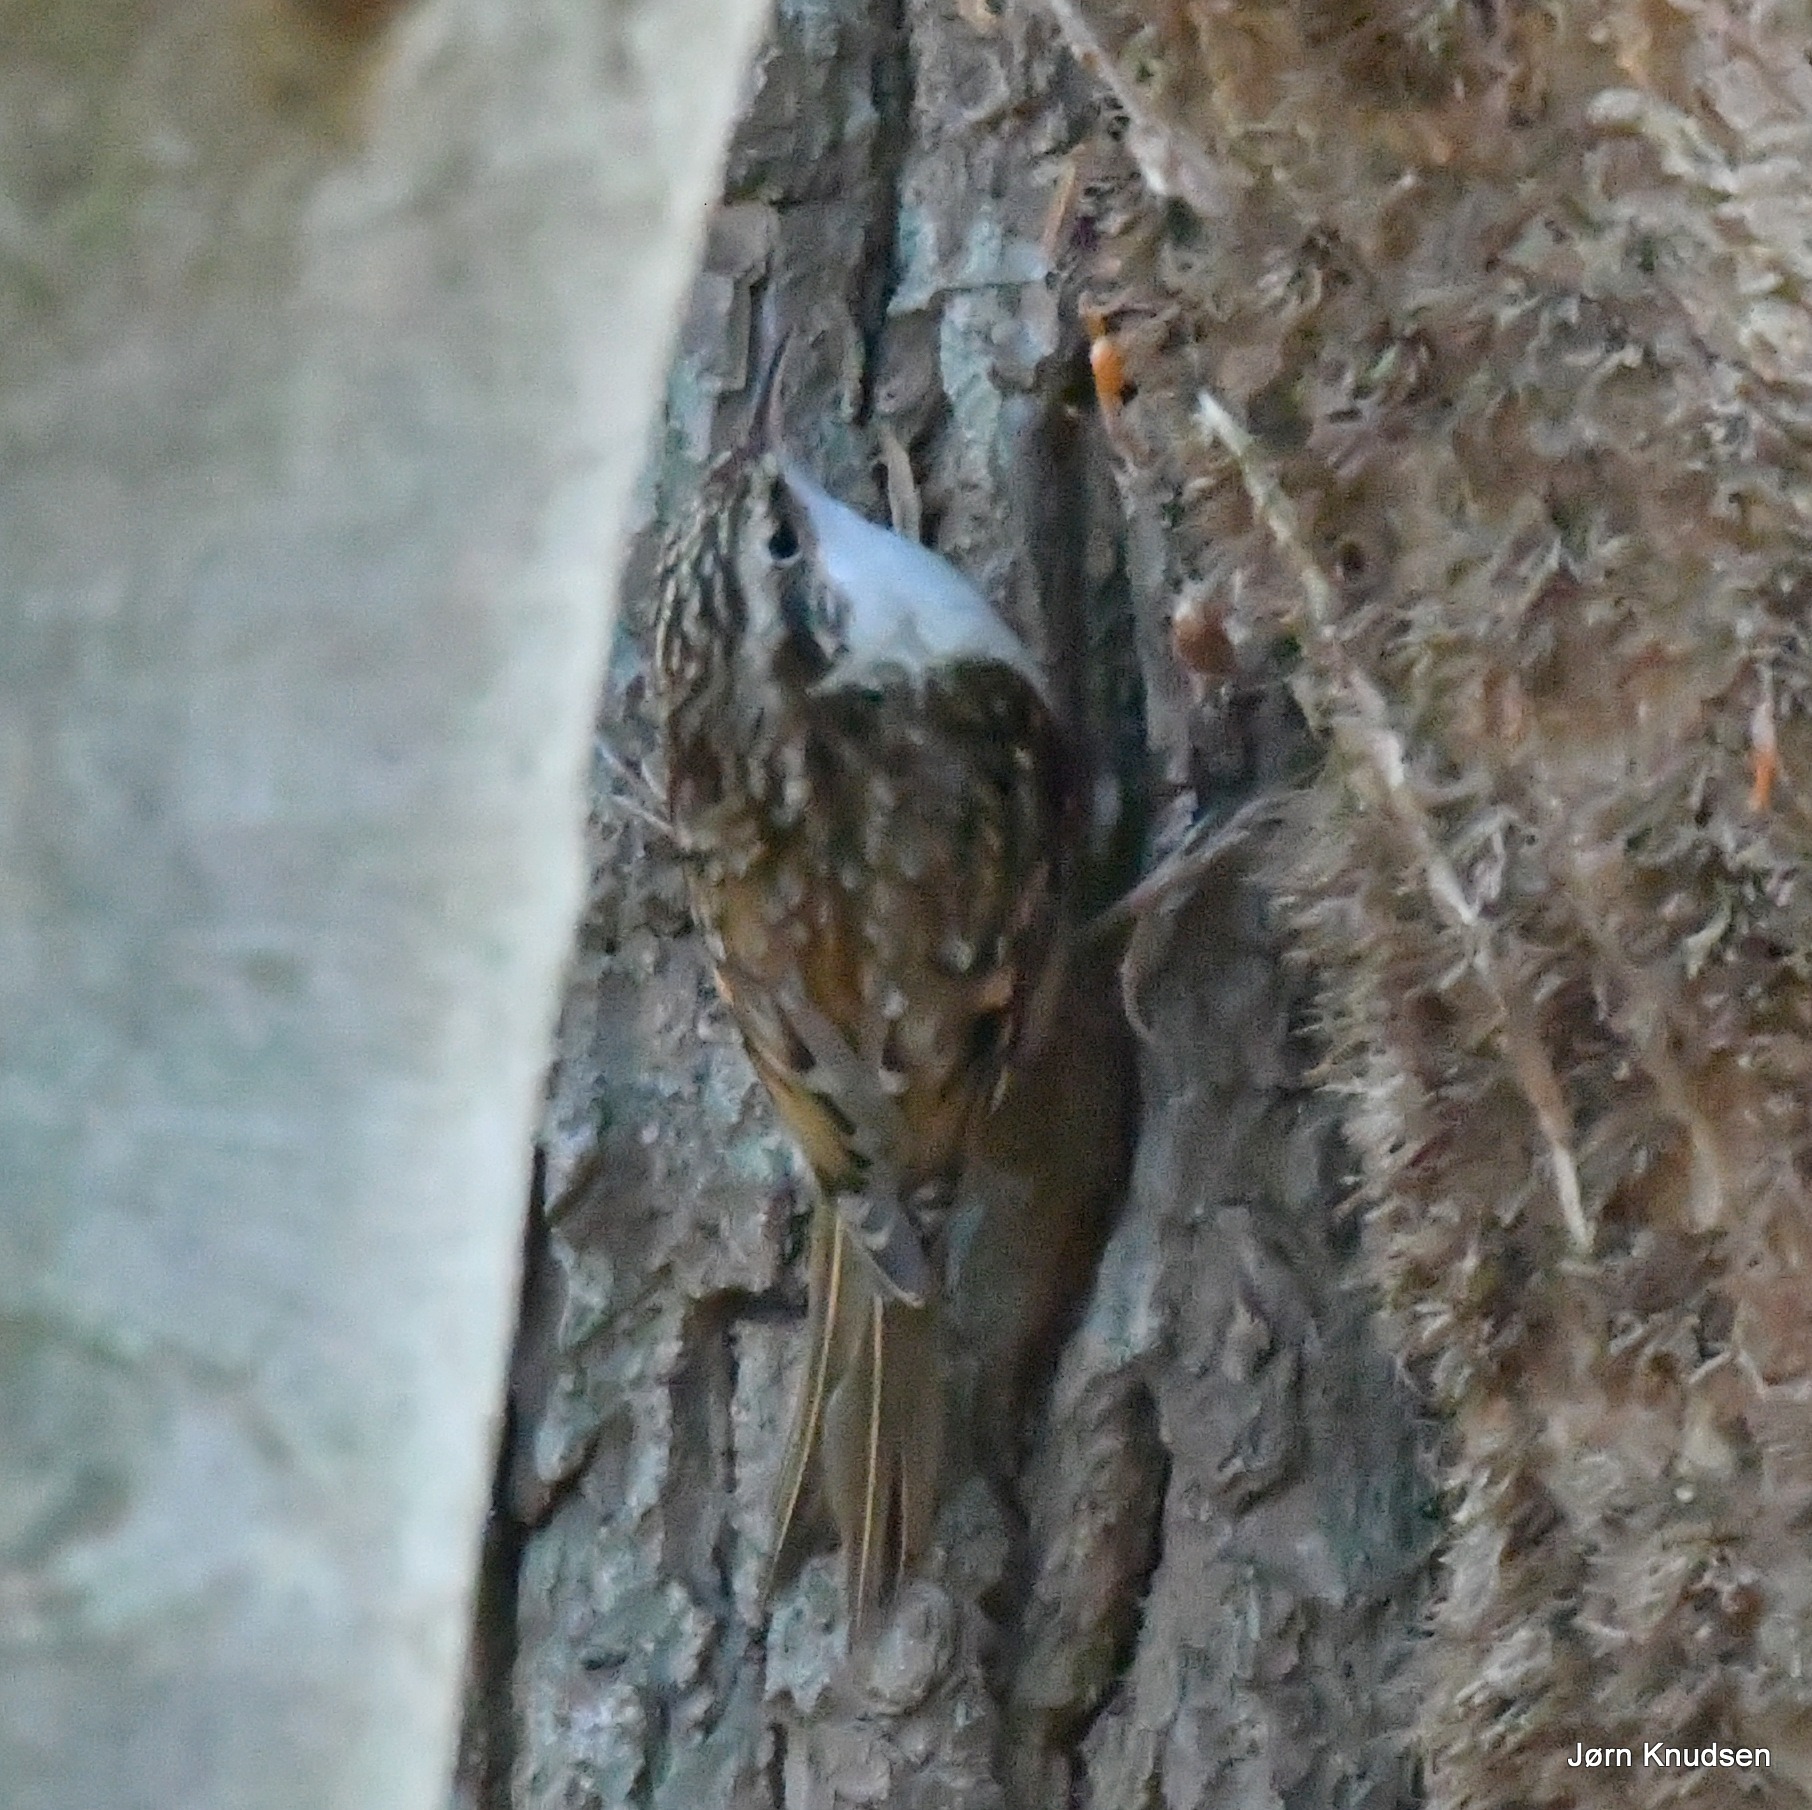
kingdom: Animalia
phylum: Chordata
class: Aves
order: Passeriformes
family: Certhiidae
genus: Certhia
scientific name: Certhia familiaris
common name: Træløber
